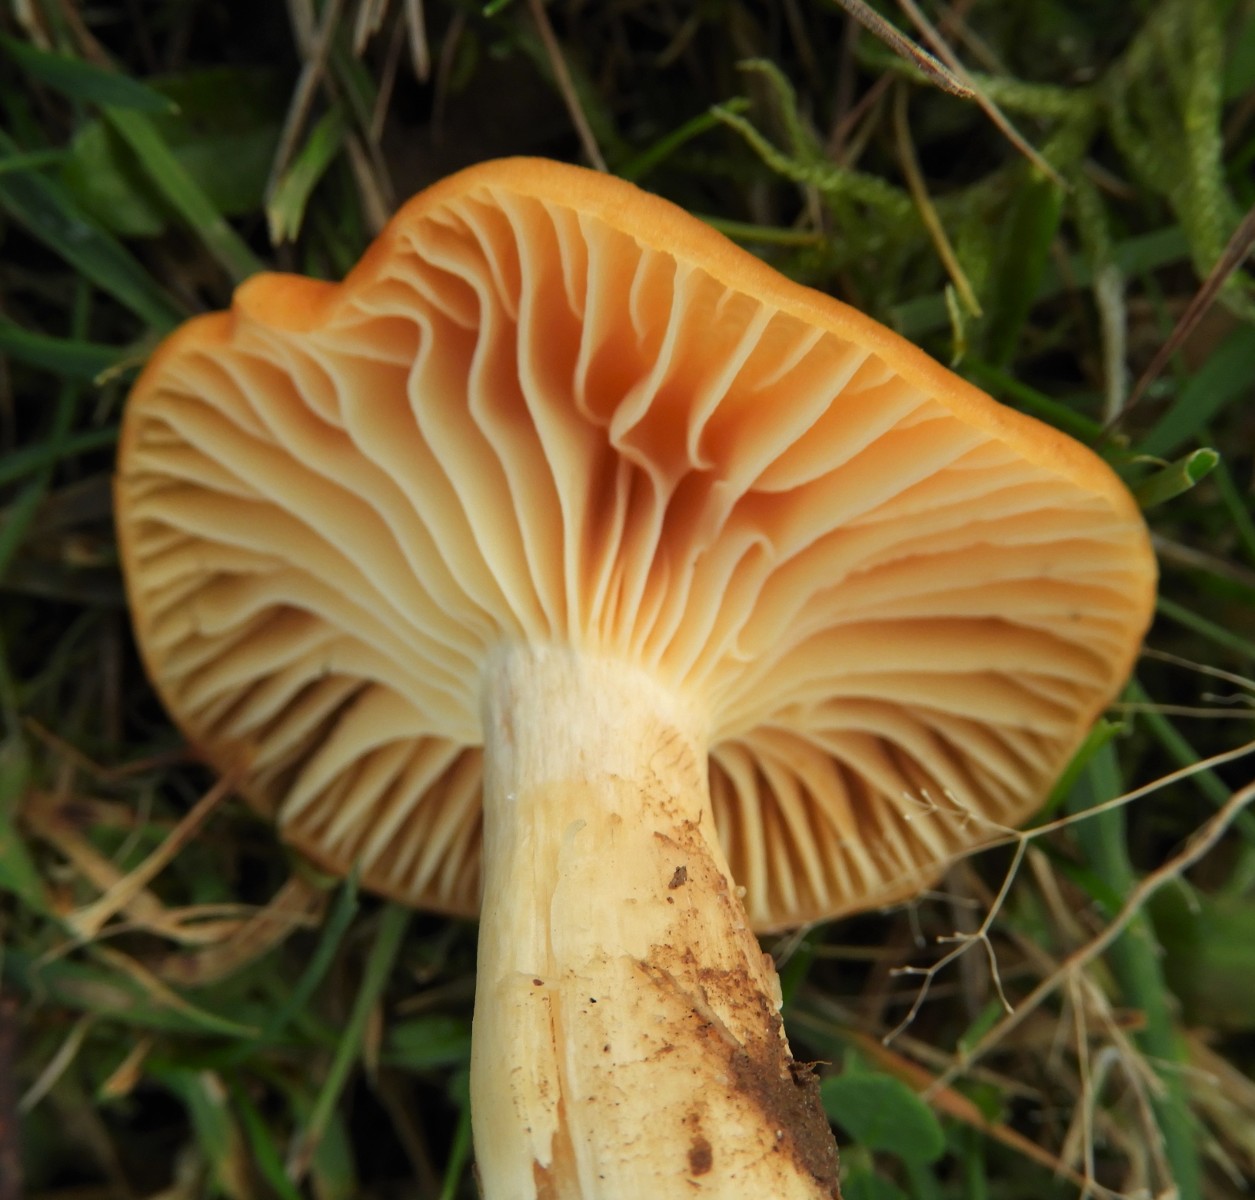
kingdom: Fungi
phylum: Basidiomycota
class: Agaricomycetes
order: Agaricales
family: Hygrophoraceae
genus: Cuphophyllus
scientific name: Cuphophyllus pratensis
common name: eng-vokshat
